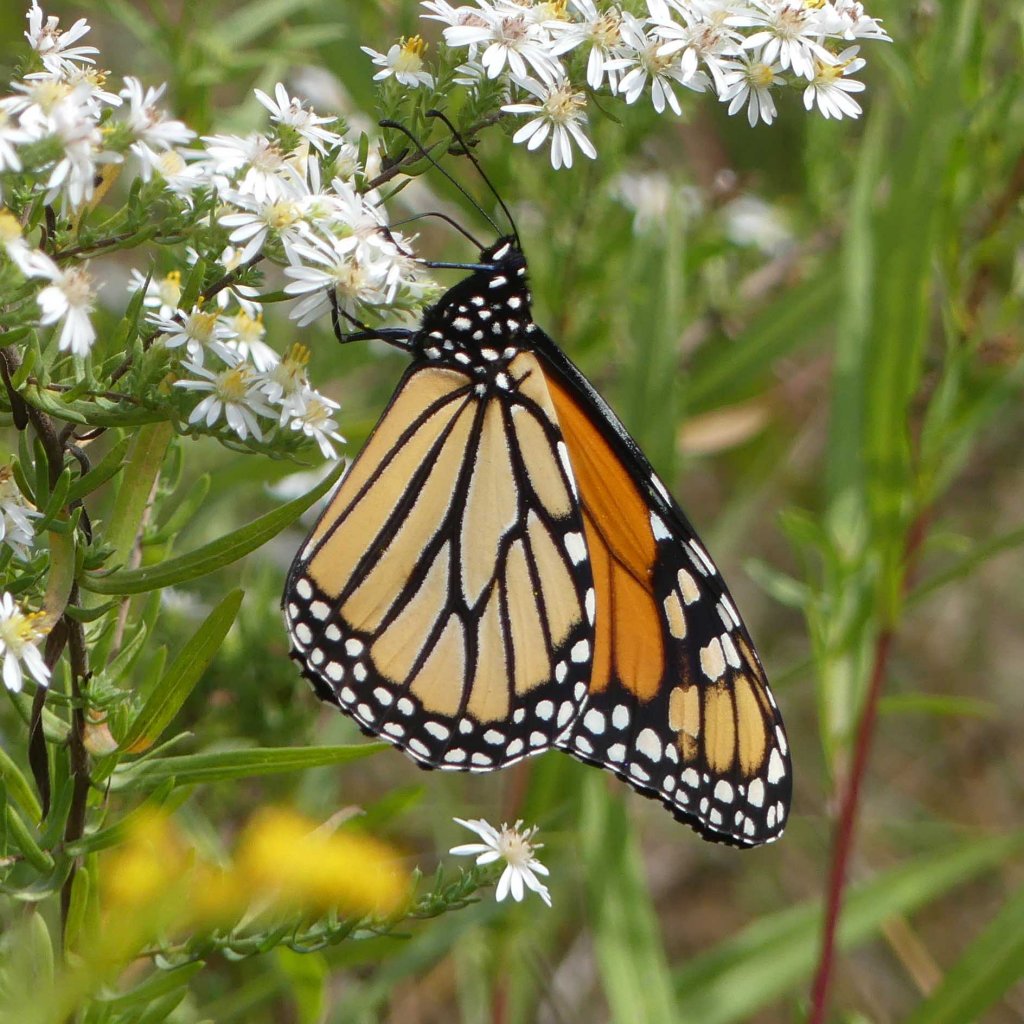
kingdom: Animalia
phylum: Arthropoda
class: Insecta
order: Lepidoptera
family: Nymphalidae
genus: Danaus
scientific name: Danaus plexippus
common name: Monarch
